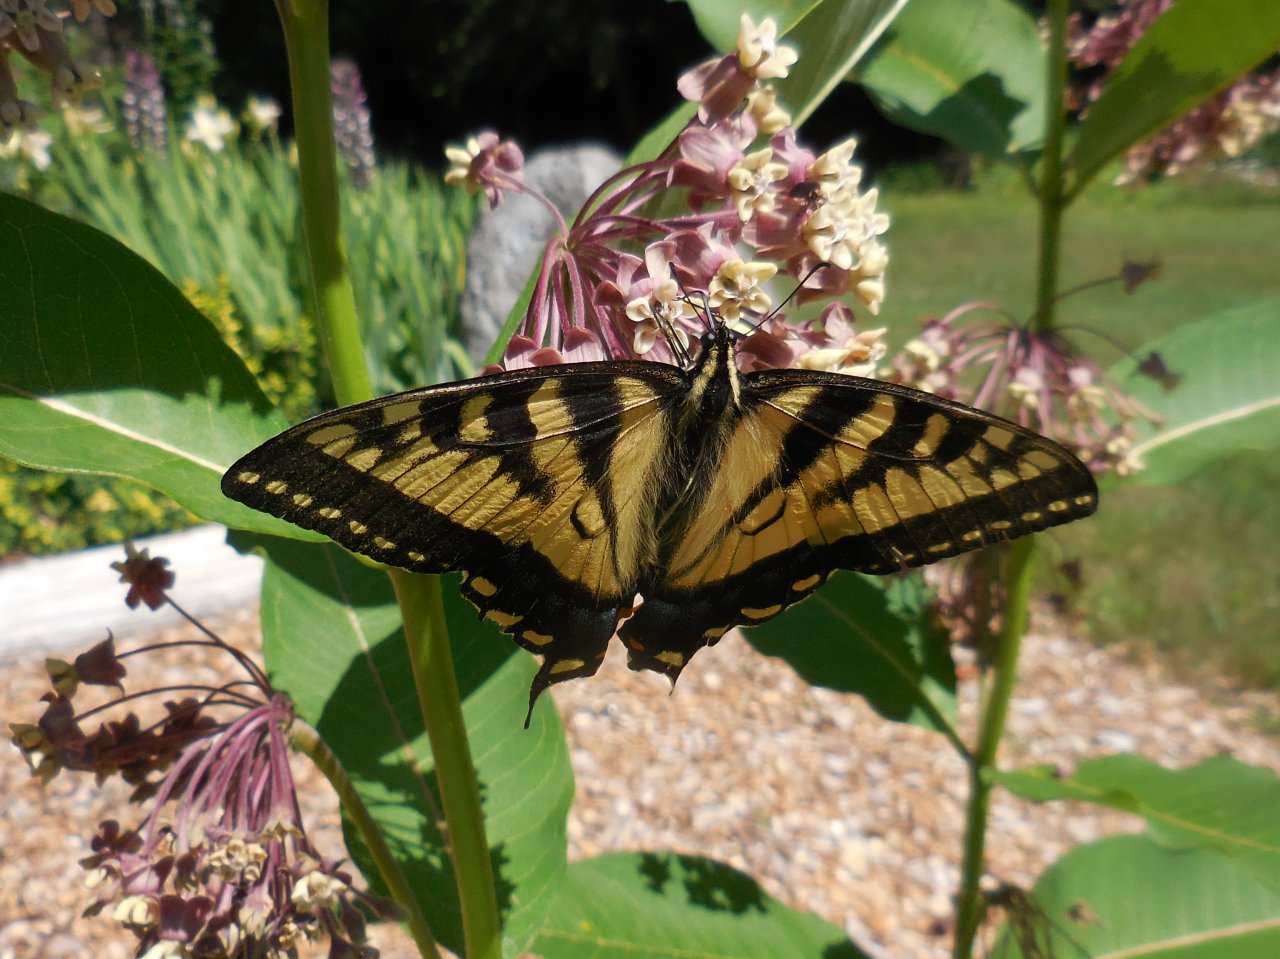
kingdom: Animalia
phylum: Arthropoda
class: Insecta
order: Lepidoptera
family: Papilionidae
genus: Pterourus
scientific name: Pterourus canadensis
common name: Canadian Tiger Swallowtail
